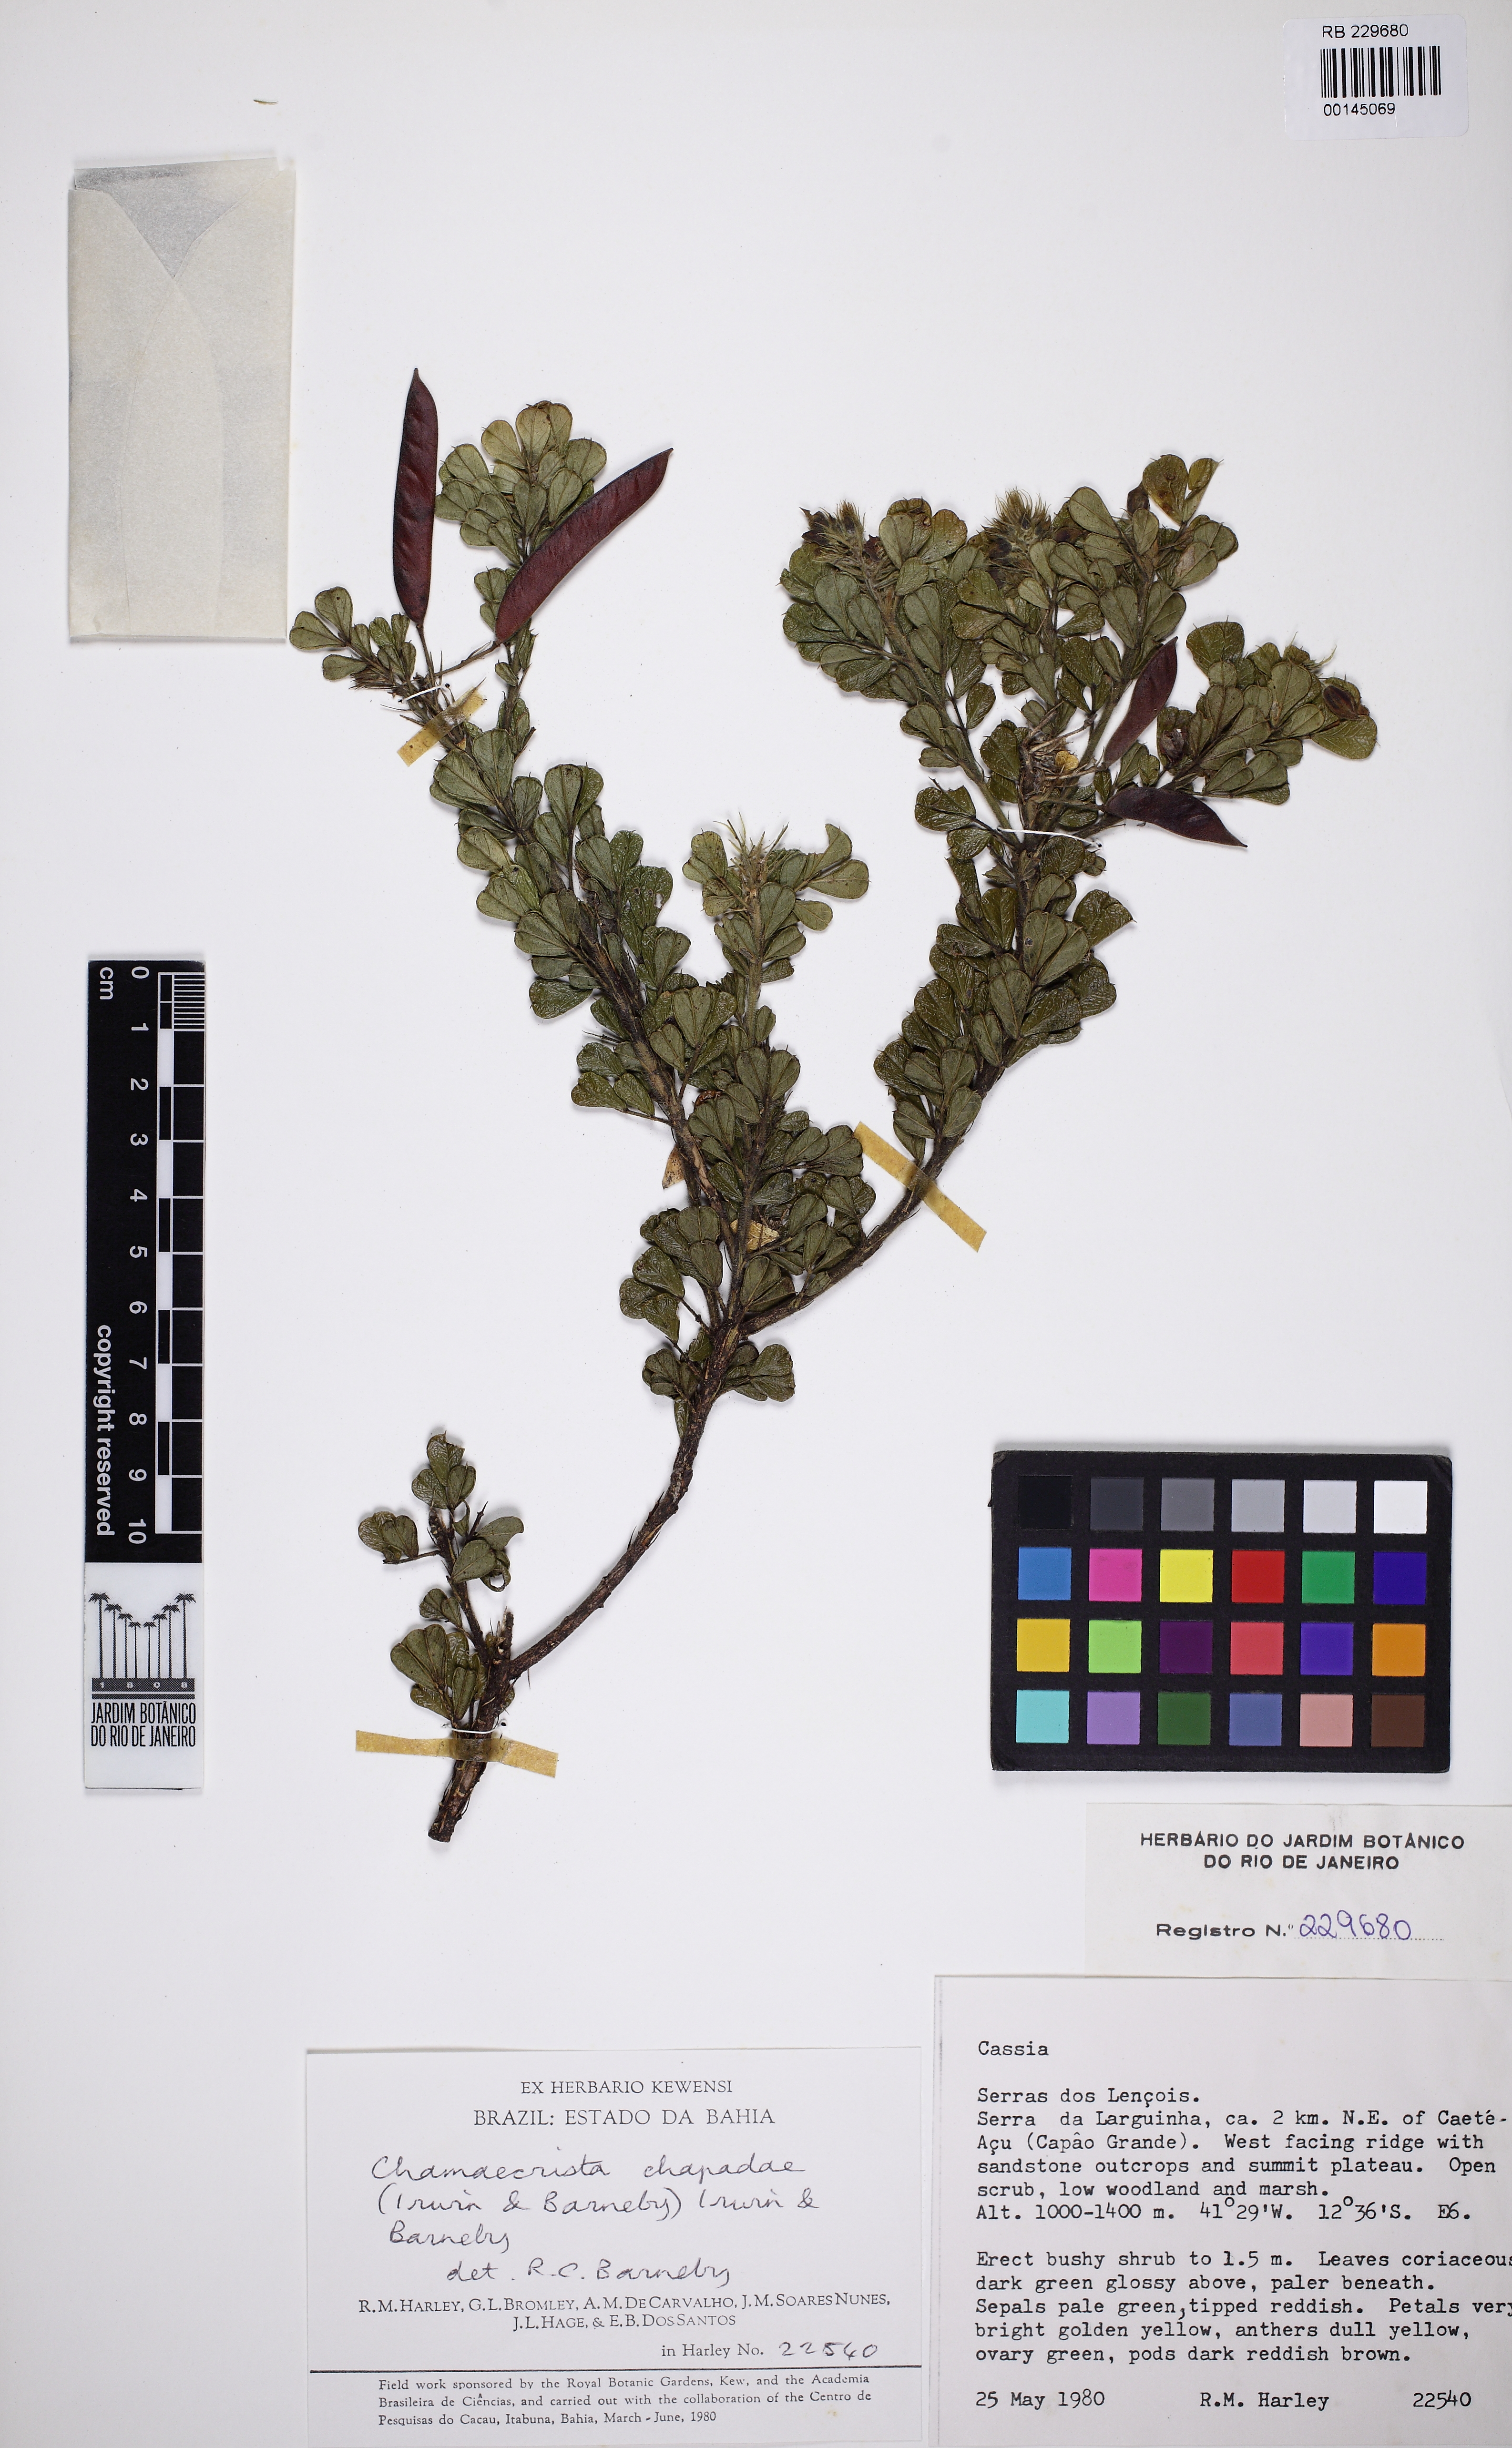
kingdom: Plantae
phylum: Tracheophyta
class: Magnoliopsida
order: Fabales
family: Fabaceae
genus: Chamaecrista
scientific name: Chamaecrista chapadae
